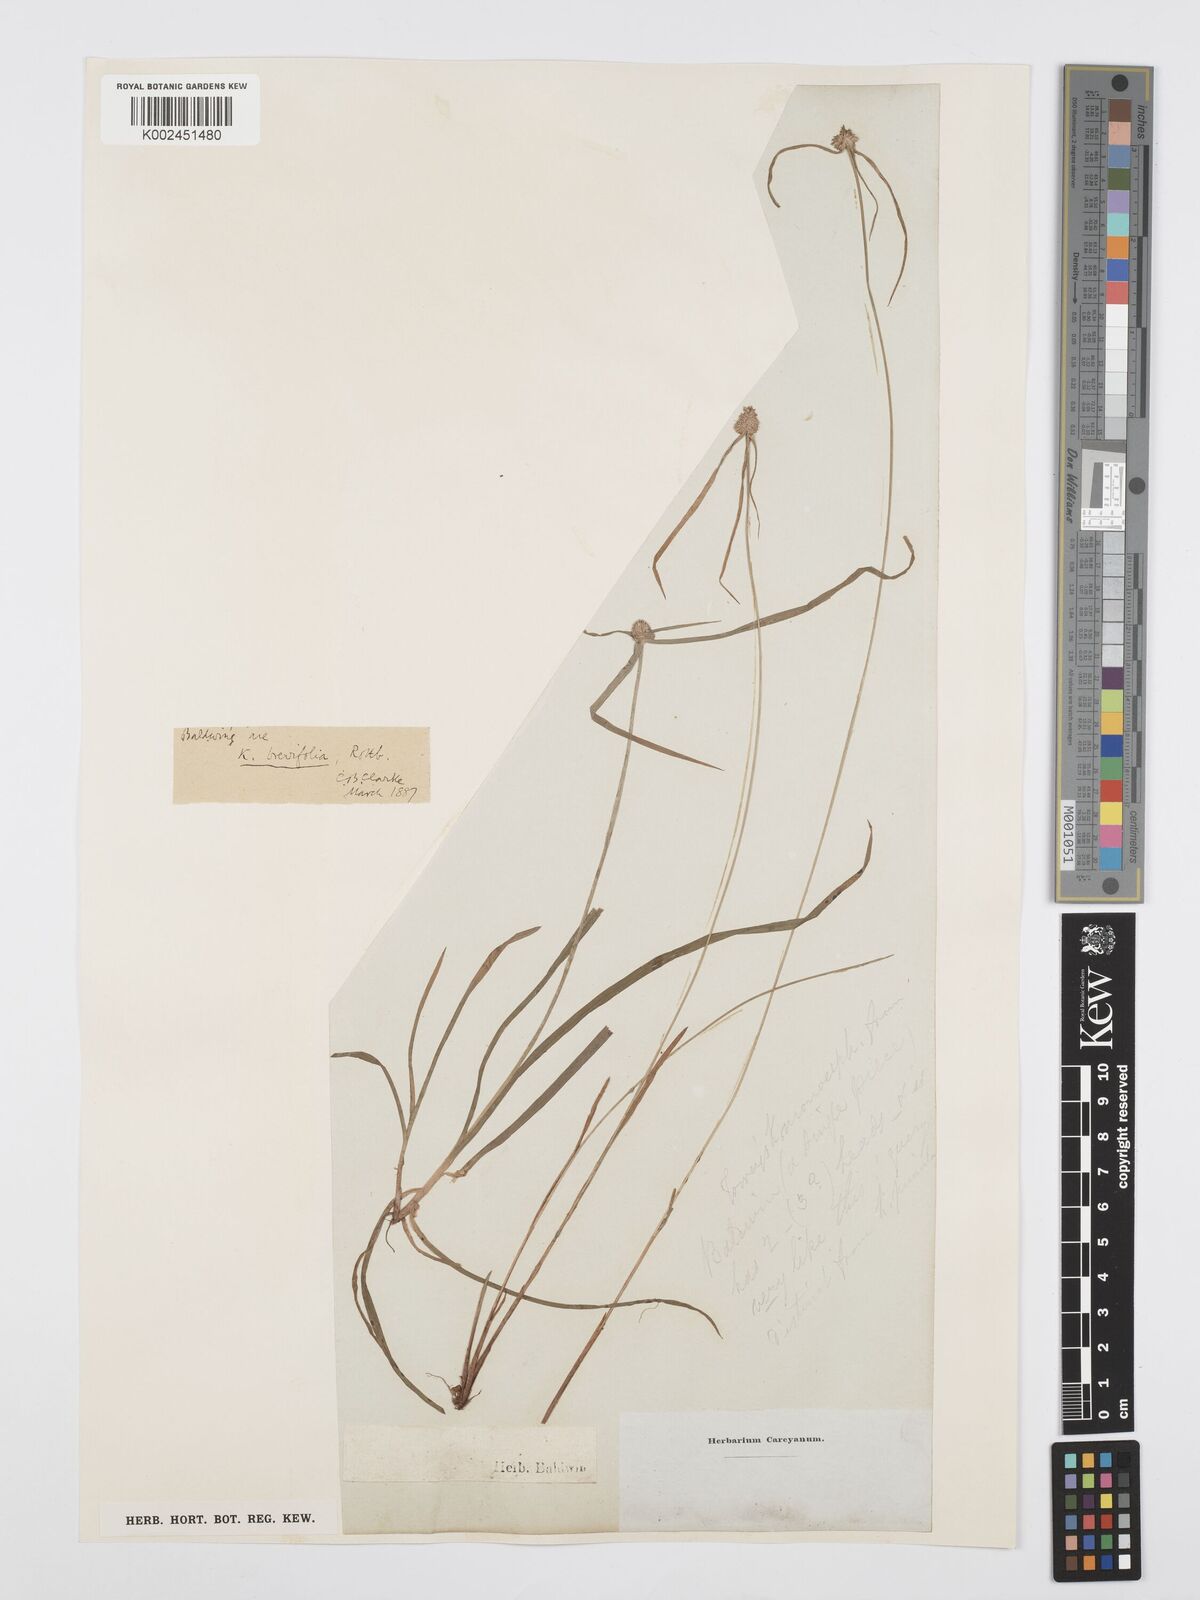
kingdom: Plantae
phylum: Tracheophyta
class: Liliopsida
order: Poales
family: Cyperaceae
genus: Cyperus
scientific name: Cyperus brevifolius
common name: Globe kyllinga
